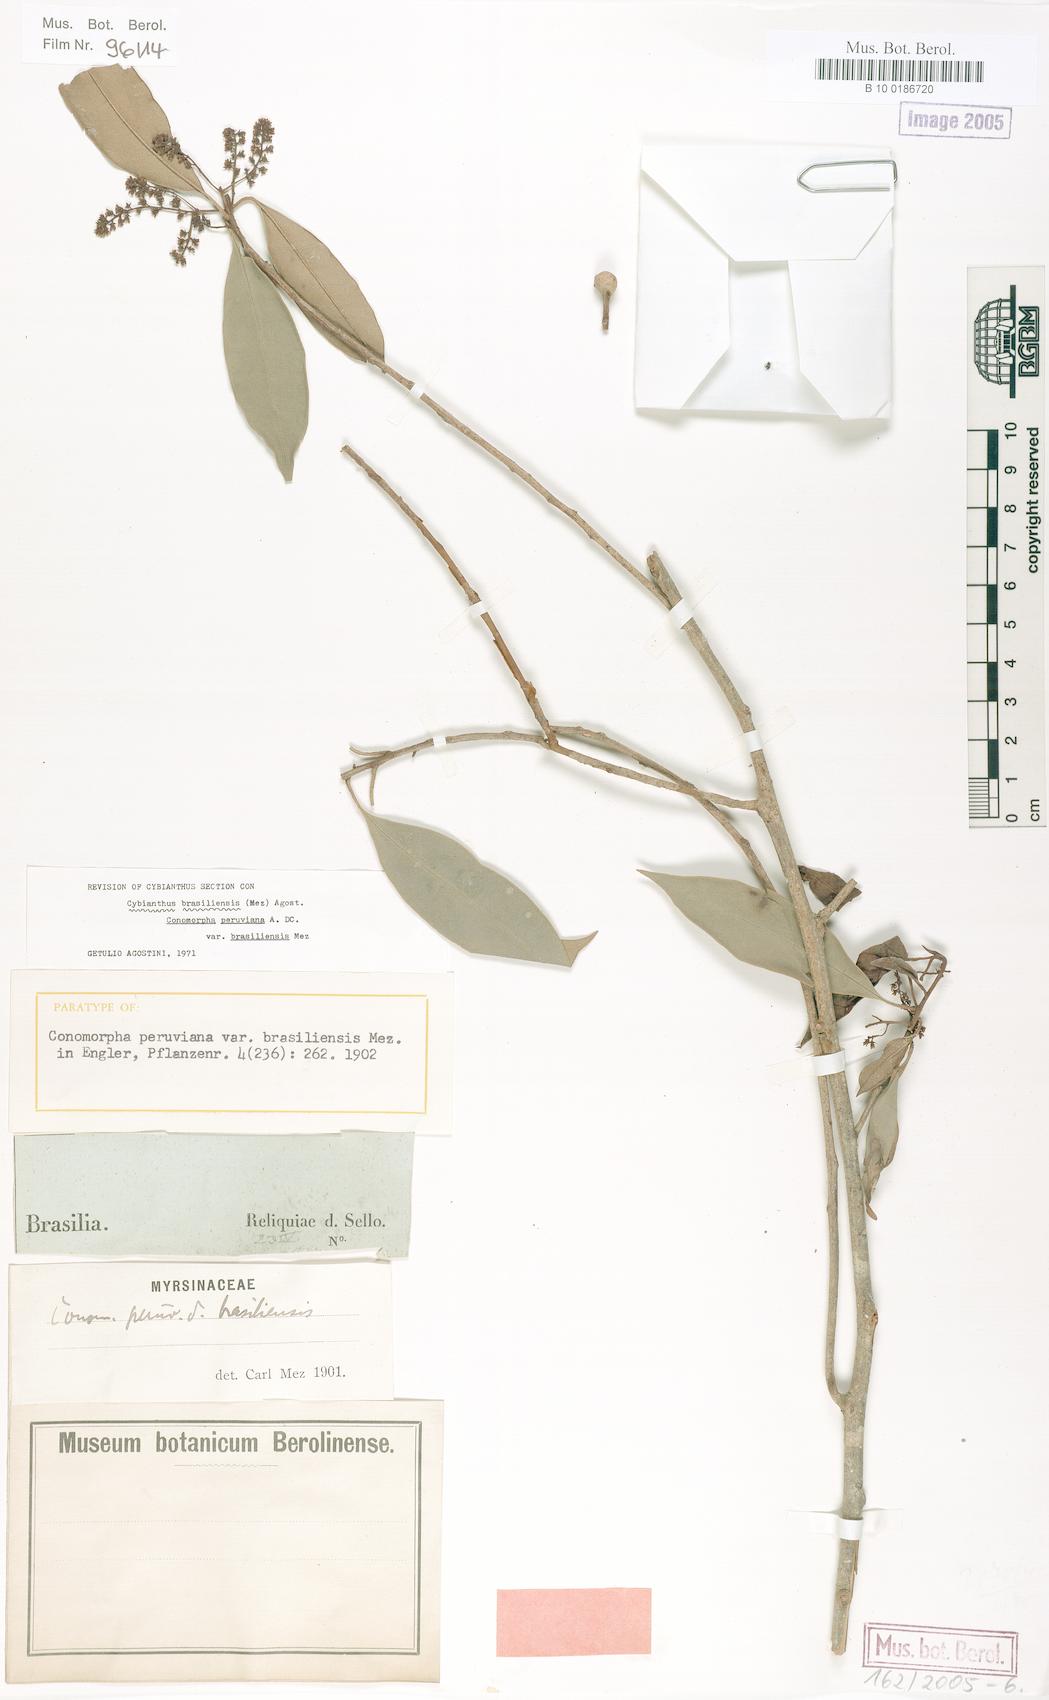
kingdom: Plantae
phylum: Tracheophyta
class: Magnoliopsida
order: Ericales
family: Primulaceae
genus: Cybianthus
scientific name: Cybianthus peruvianus
